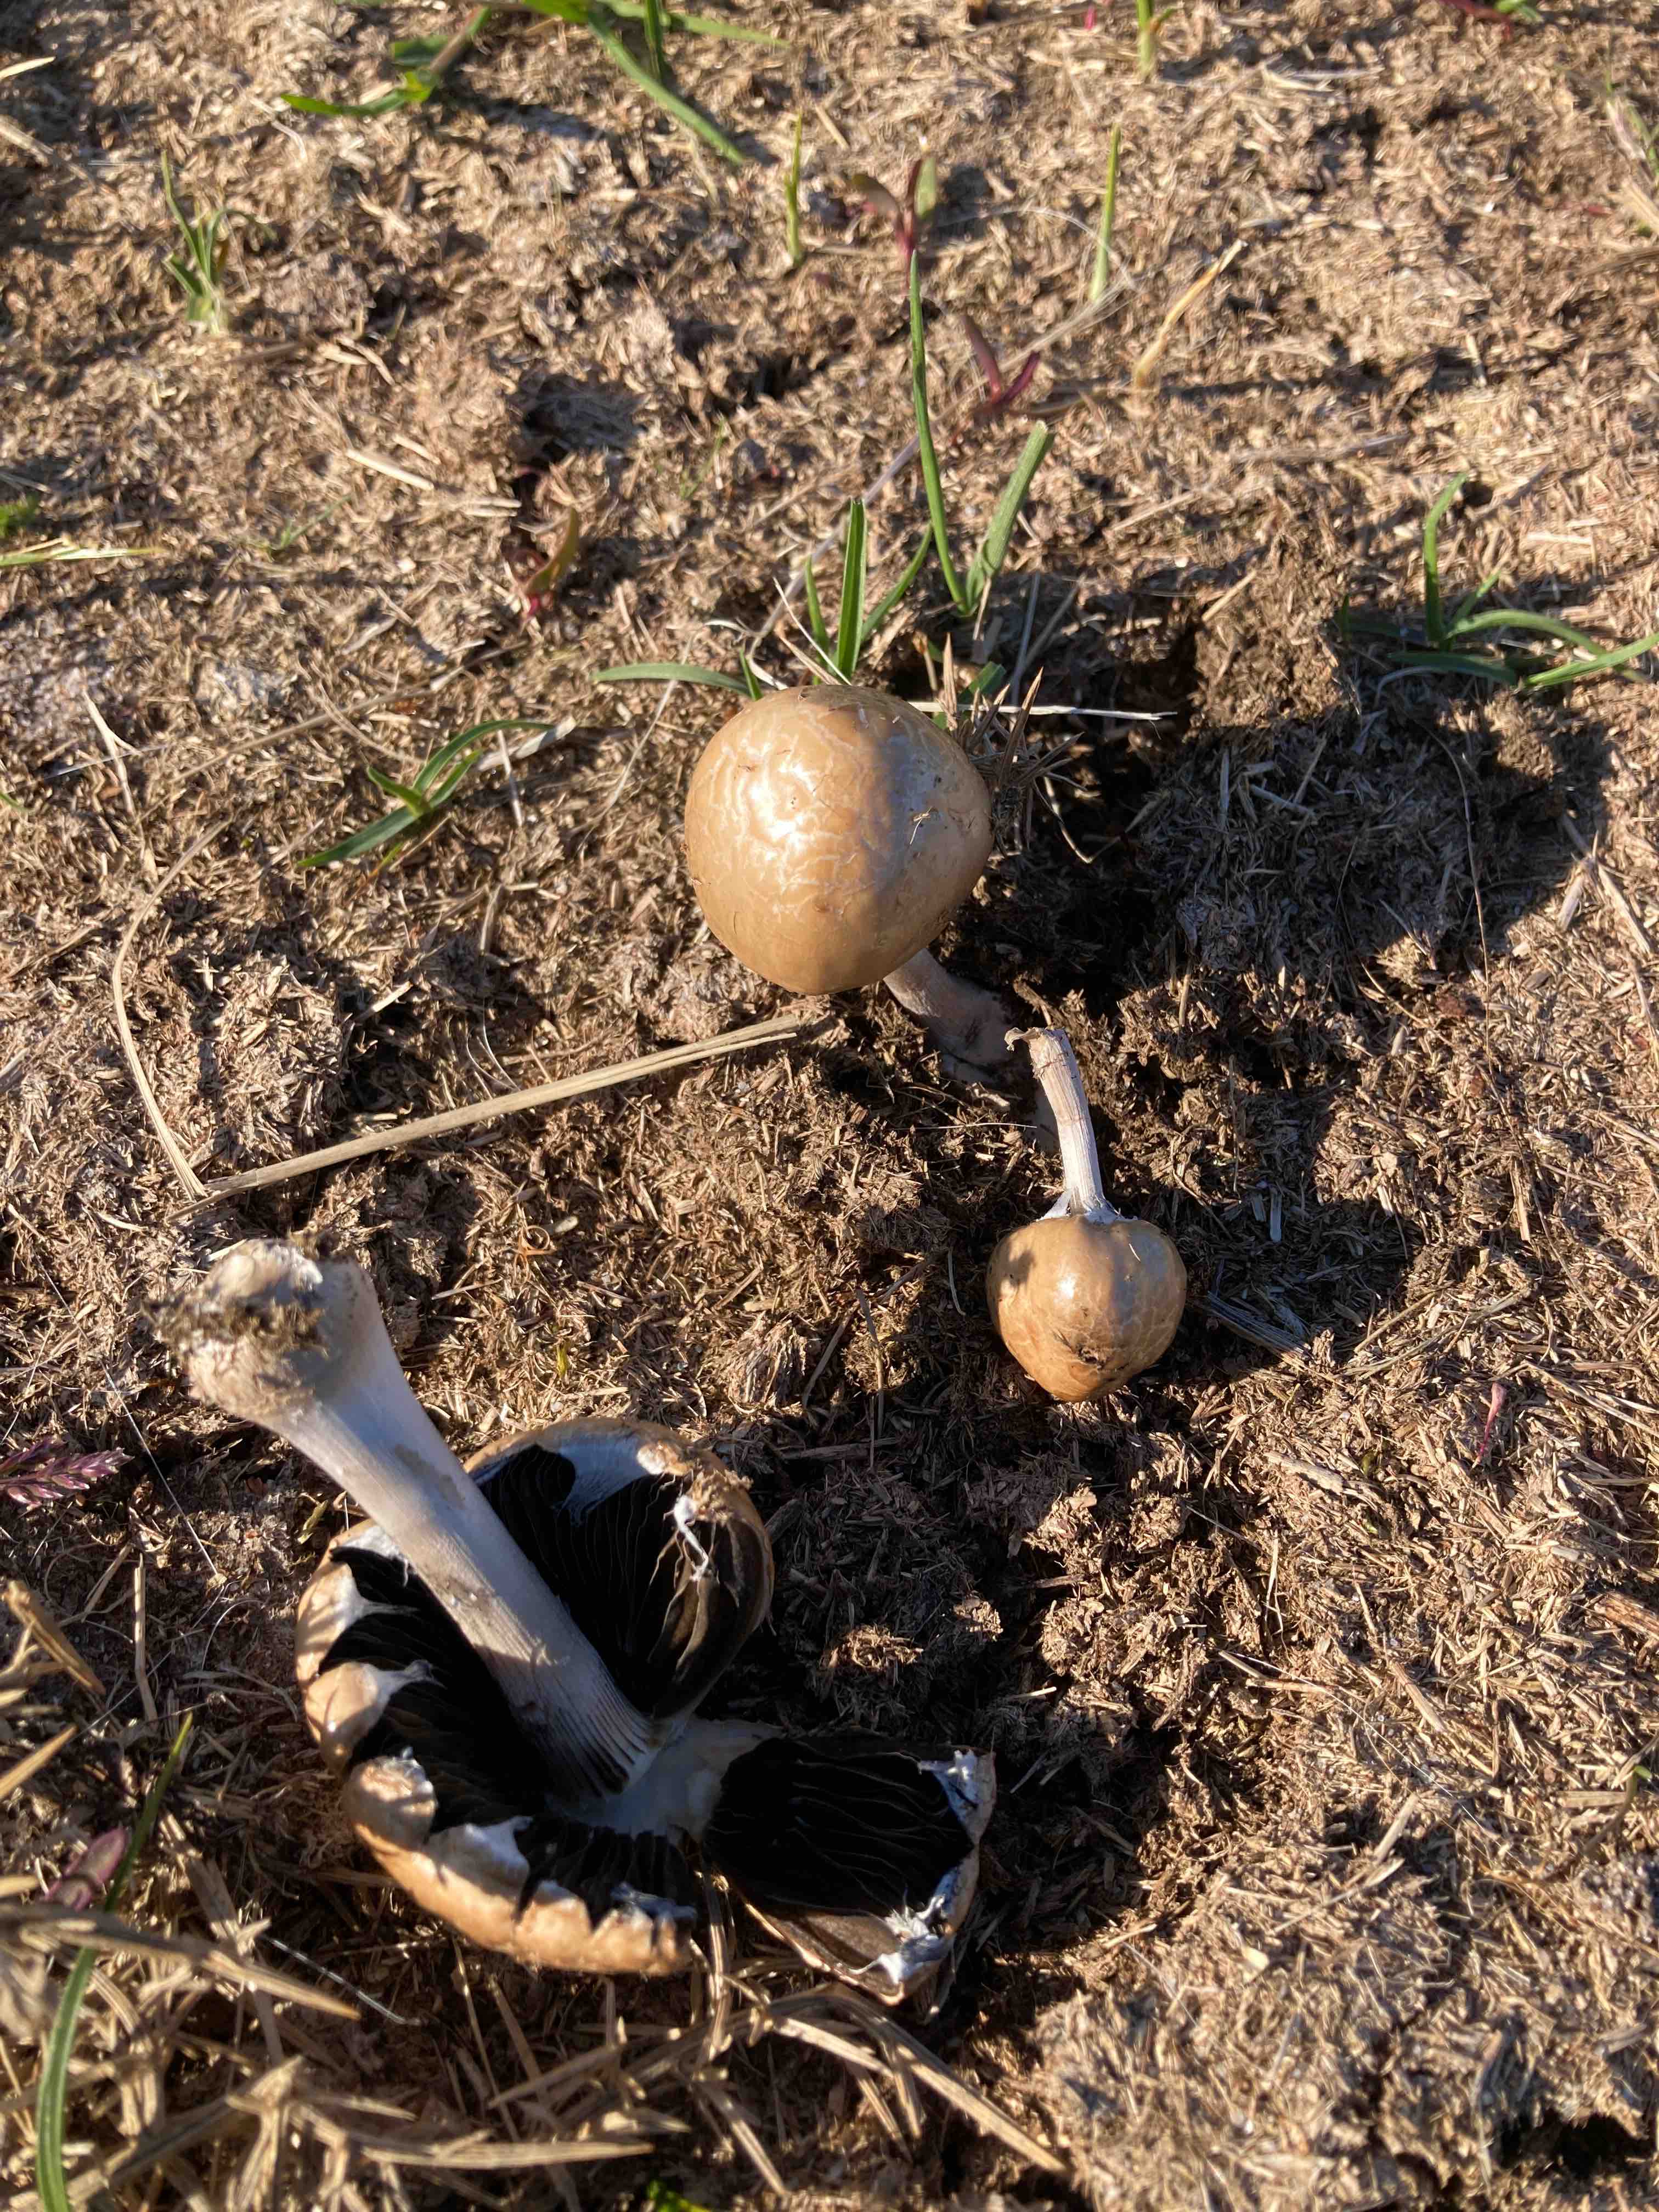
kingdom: Fungi
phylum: Basidiomycota
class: Agaricomycetes
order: Agaricales
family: Bolbitiaceae
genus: Panaeolus
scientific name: Panaeolus semiovatus
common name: ring-glanshat
